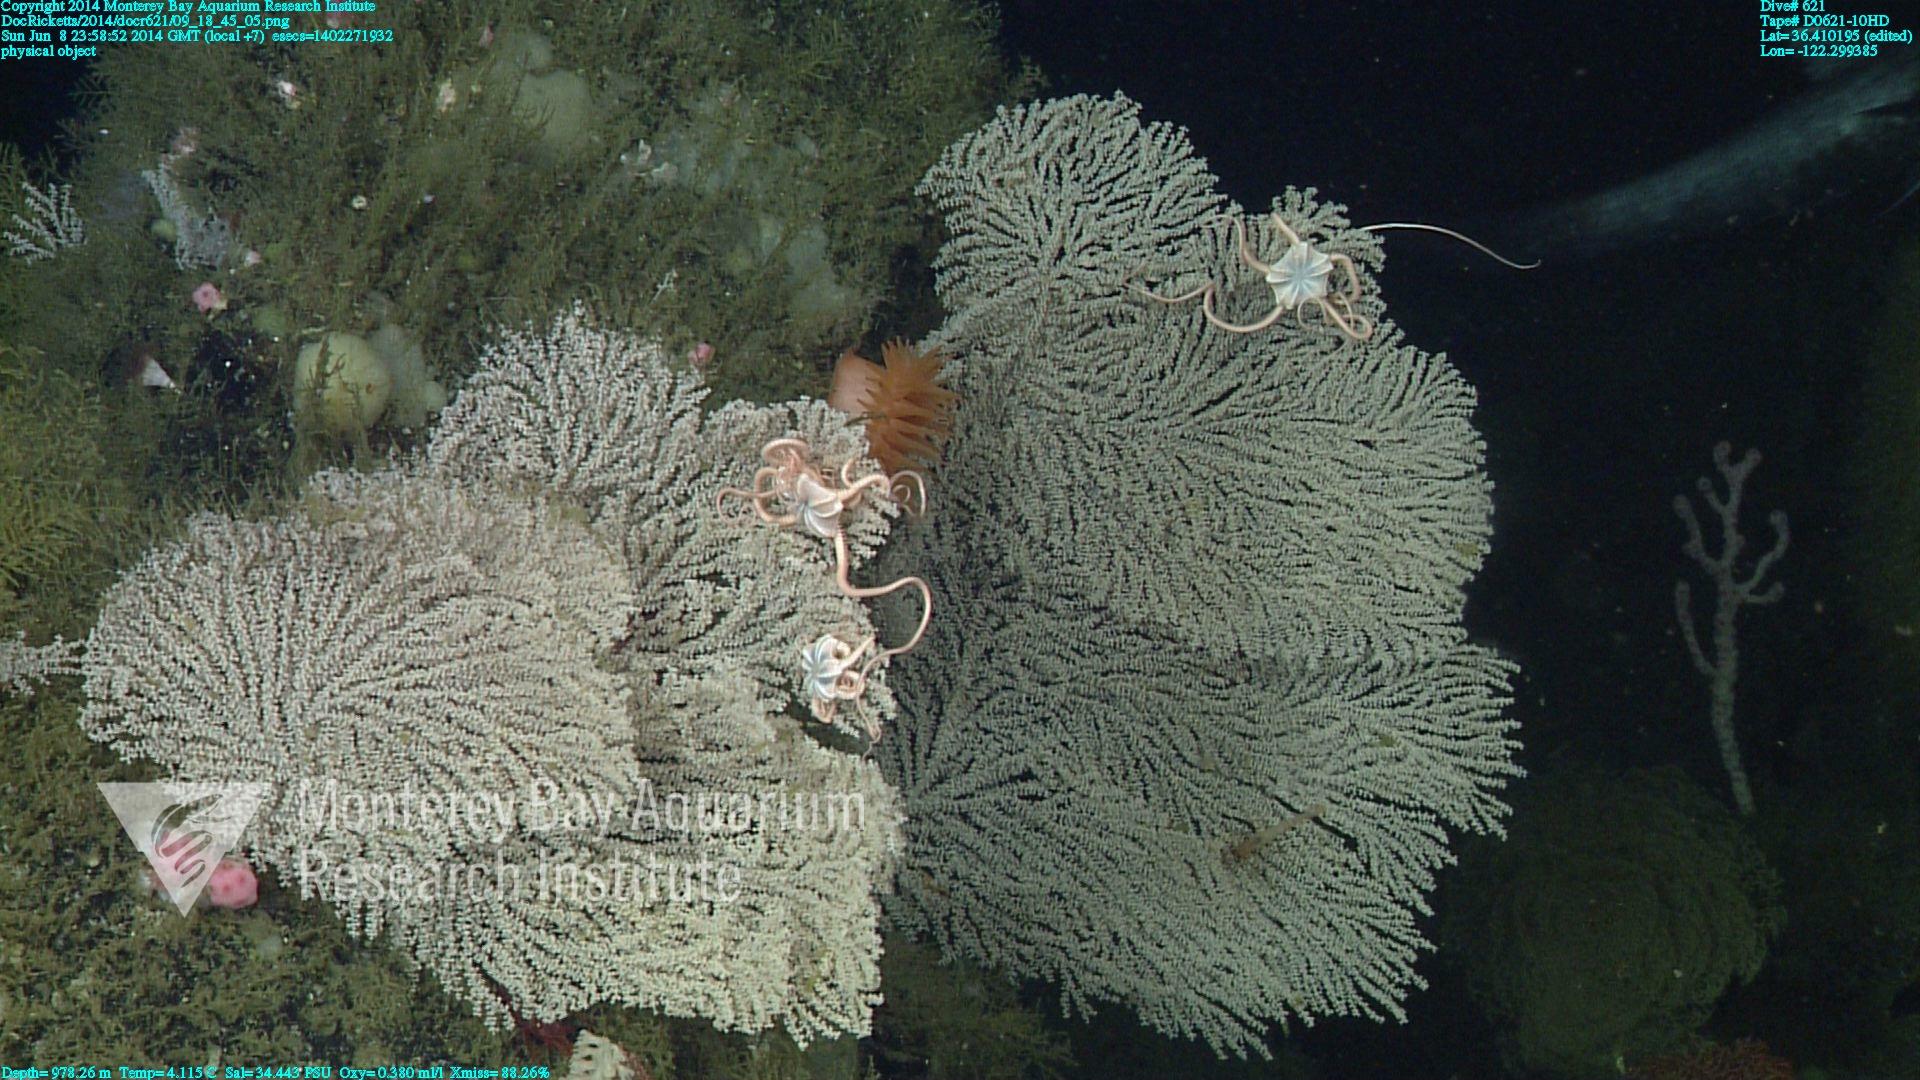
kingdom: Animalia
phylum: Cnidaria
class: Anthozoa
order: Scleralcyonacea
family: Primnoidae
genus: Parastenella
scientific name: Parastenella
